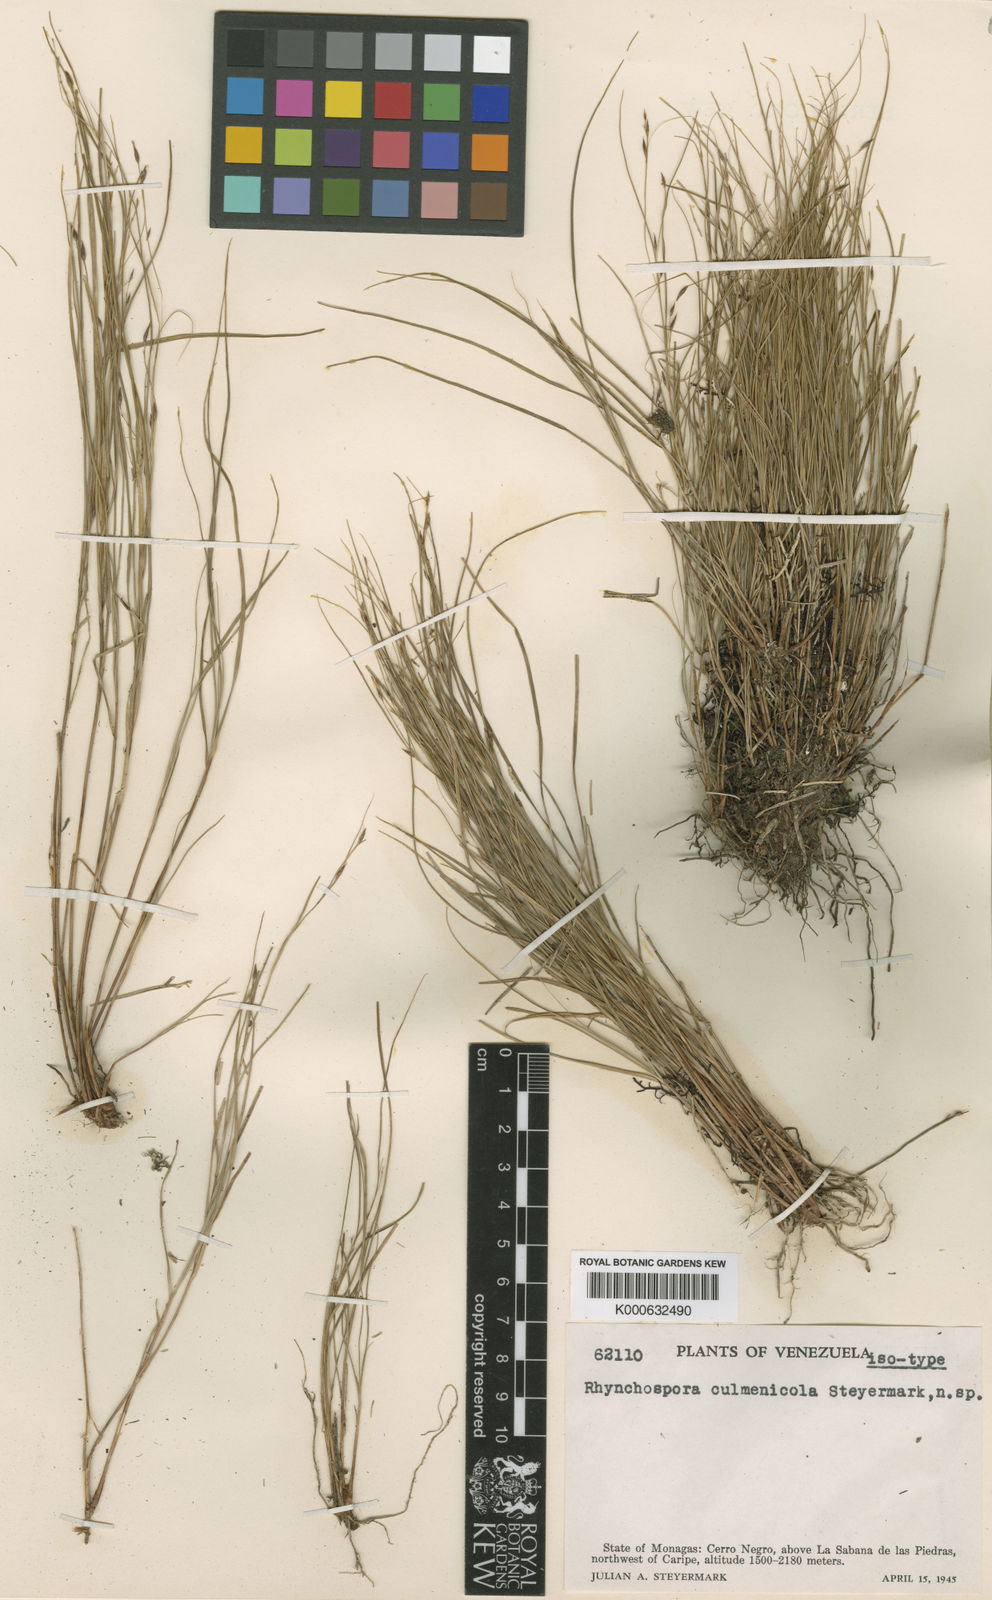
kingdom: Plantae
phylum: Tracheophyta
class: Liliopsida
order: Poales
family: Cyperaceae
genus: Rhynchospora
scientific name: Rhynchospora dissitiflora
